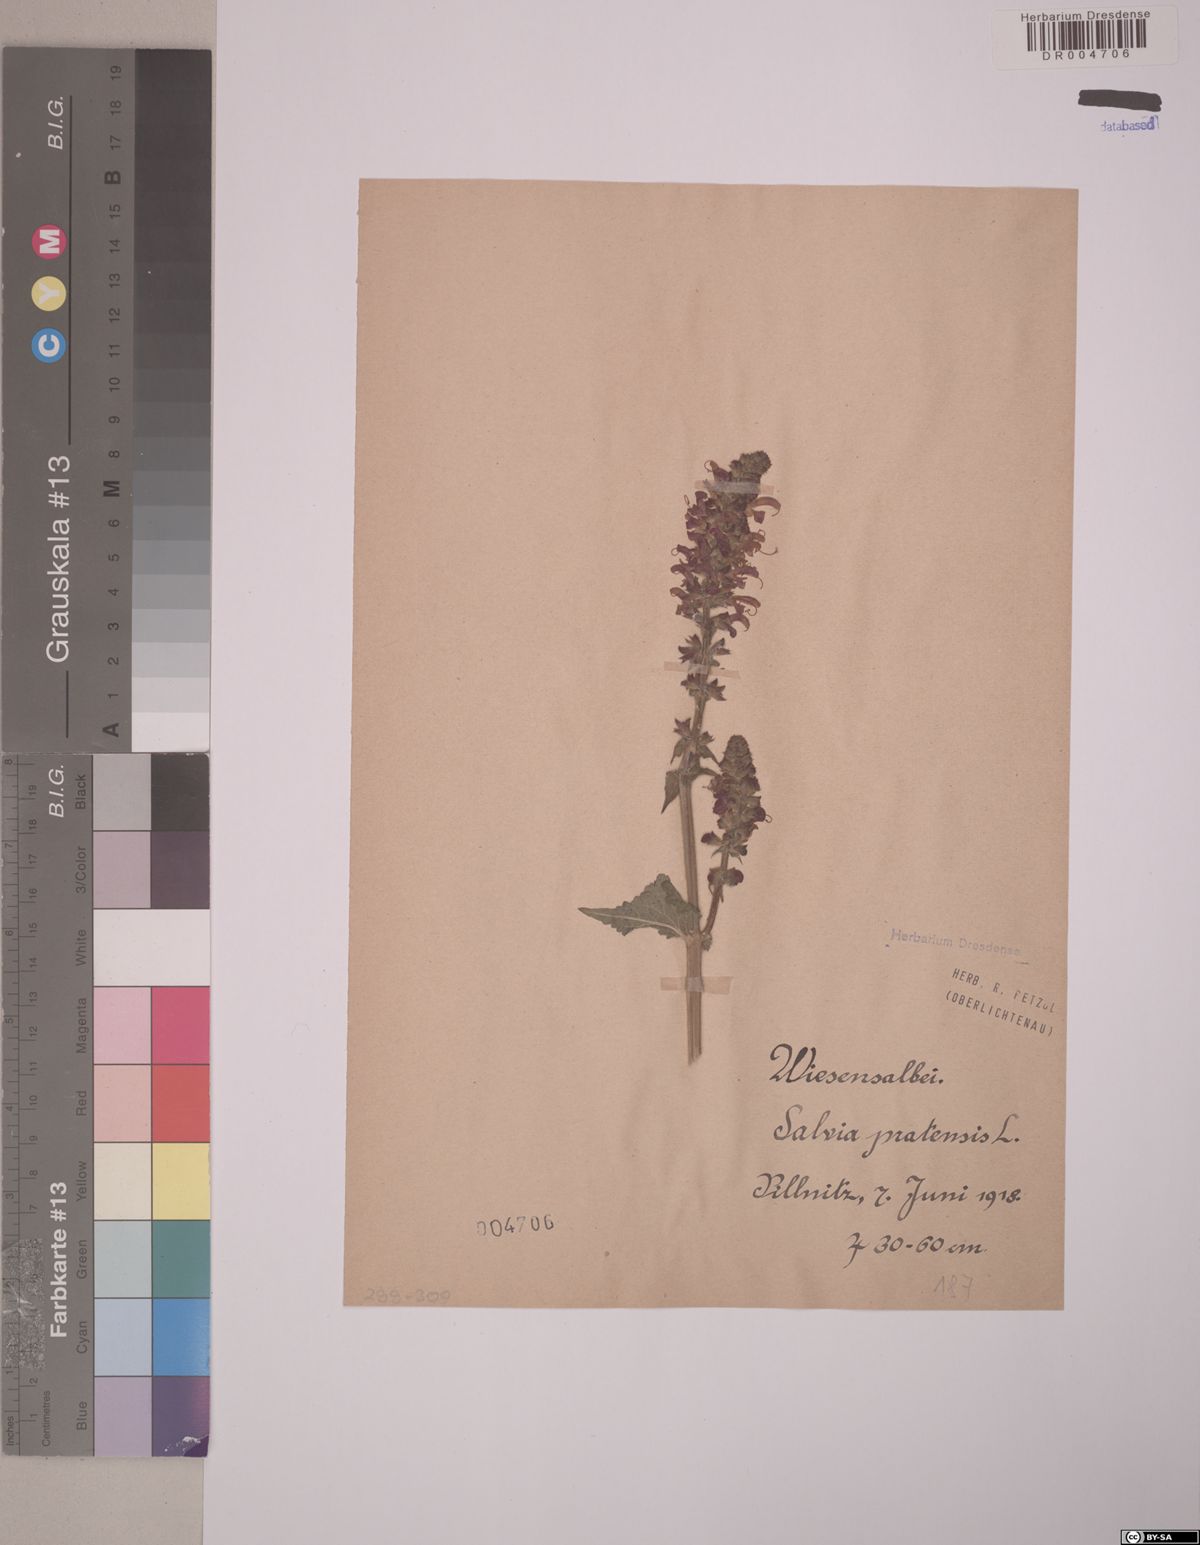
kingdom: Plantae
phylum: Tracheophyta
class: Magnoliopsida
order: Lamiales
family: Lamiaceae
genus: Salvia
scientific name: Salvia pratensis
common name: Meadow sage
